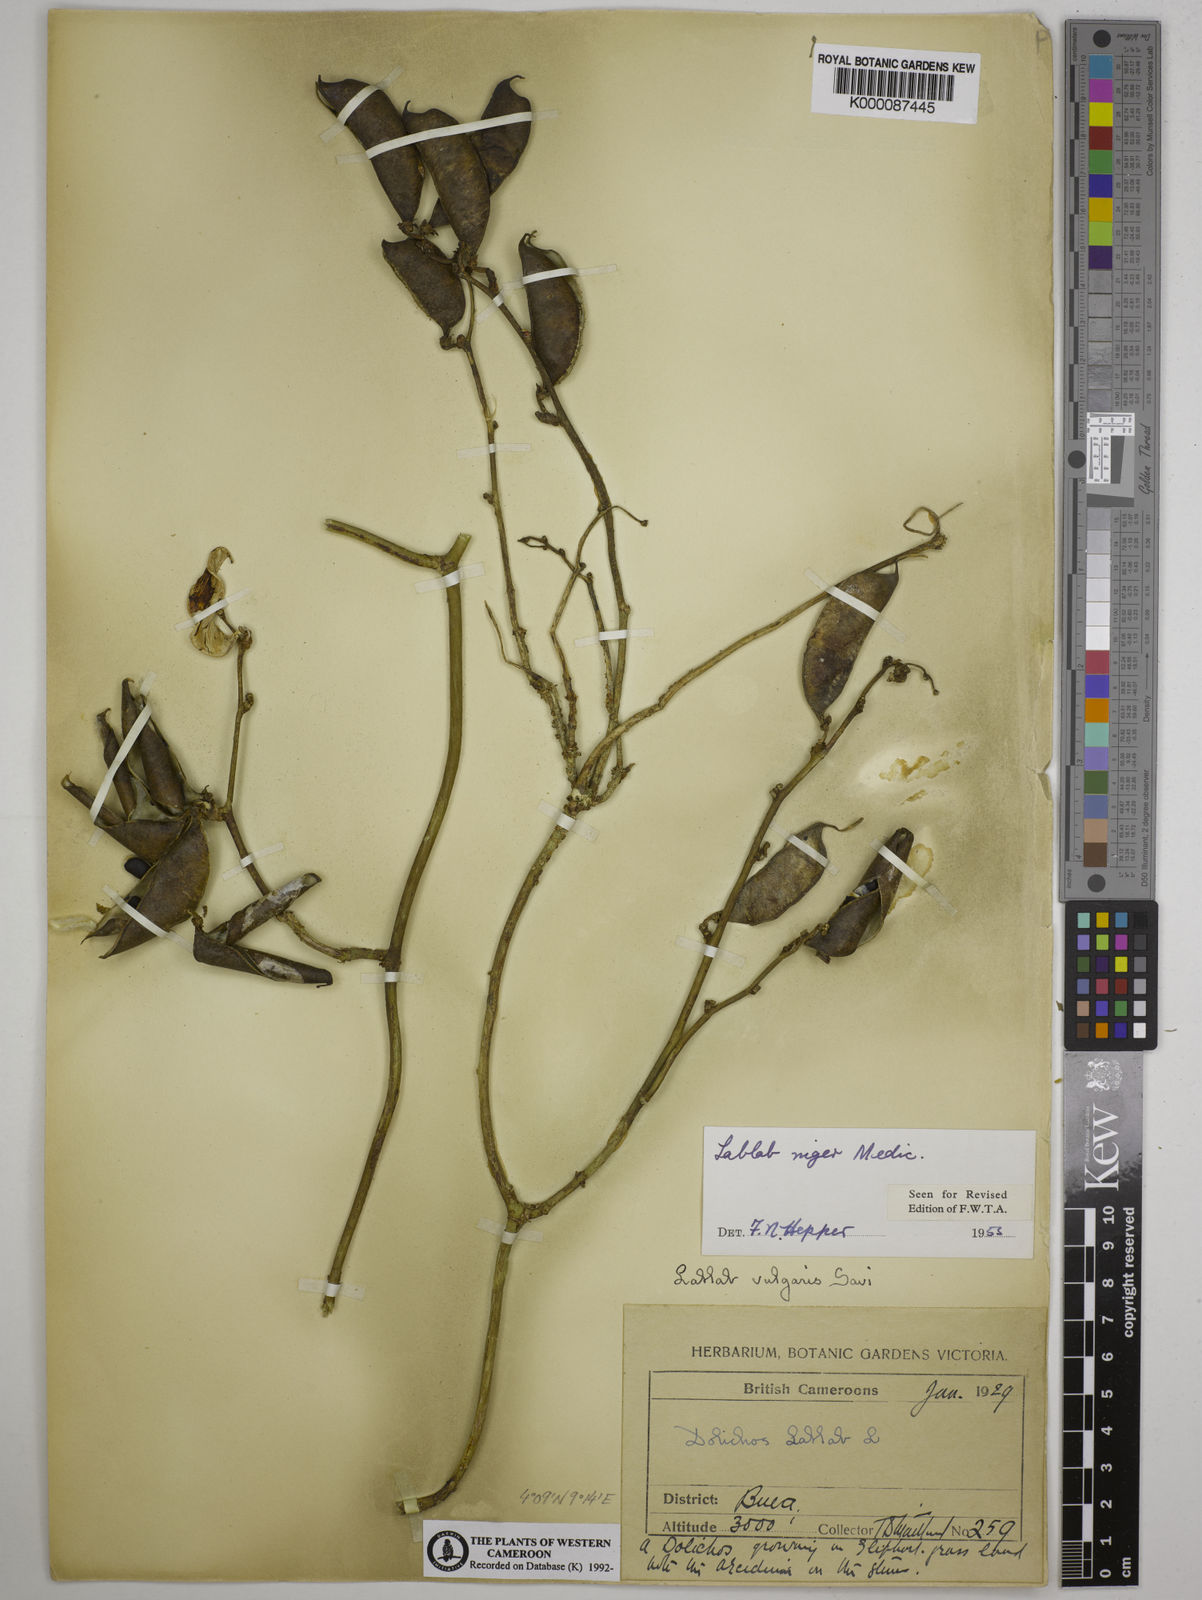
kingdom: Plantae
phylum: Tracheophyta
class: Magnoliopsida
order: Fabales
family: Fabaceae
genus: Lablab
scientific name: Lablab purpureus
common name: Lablab-bean
